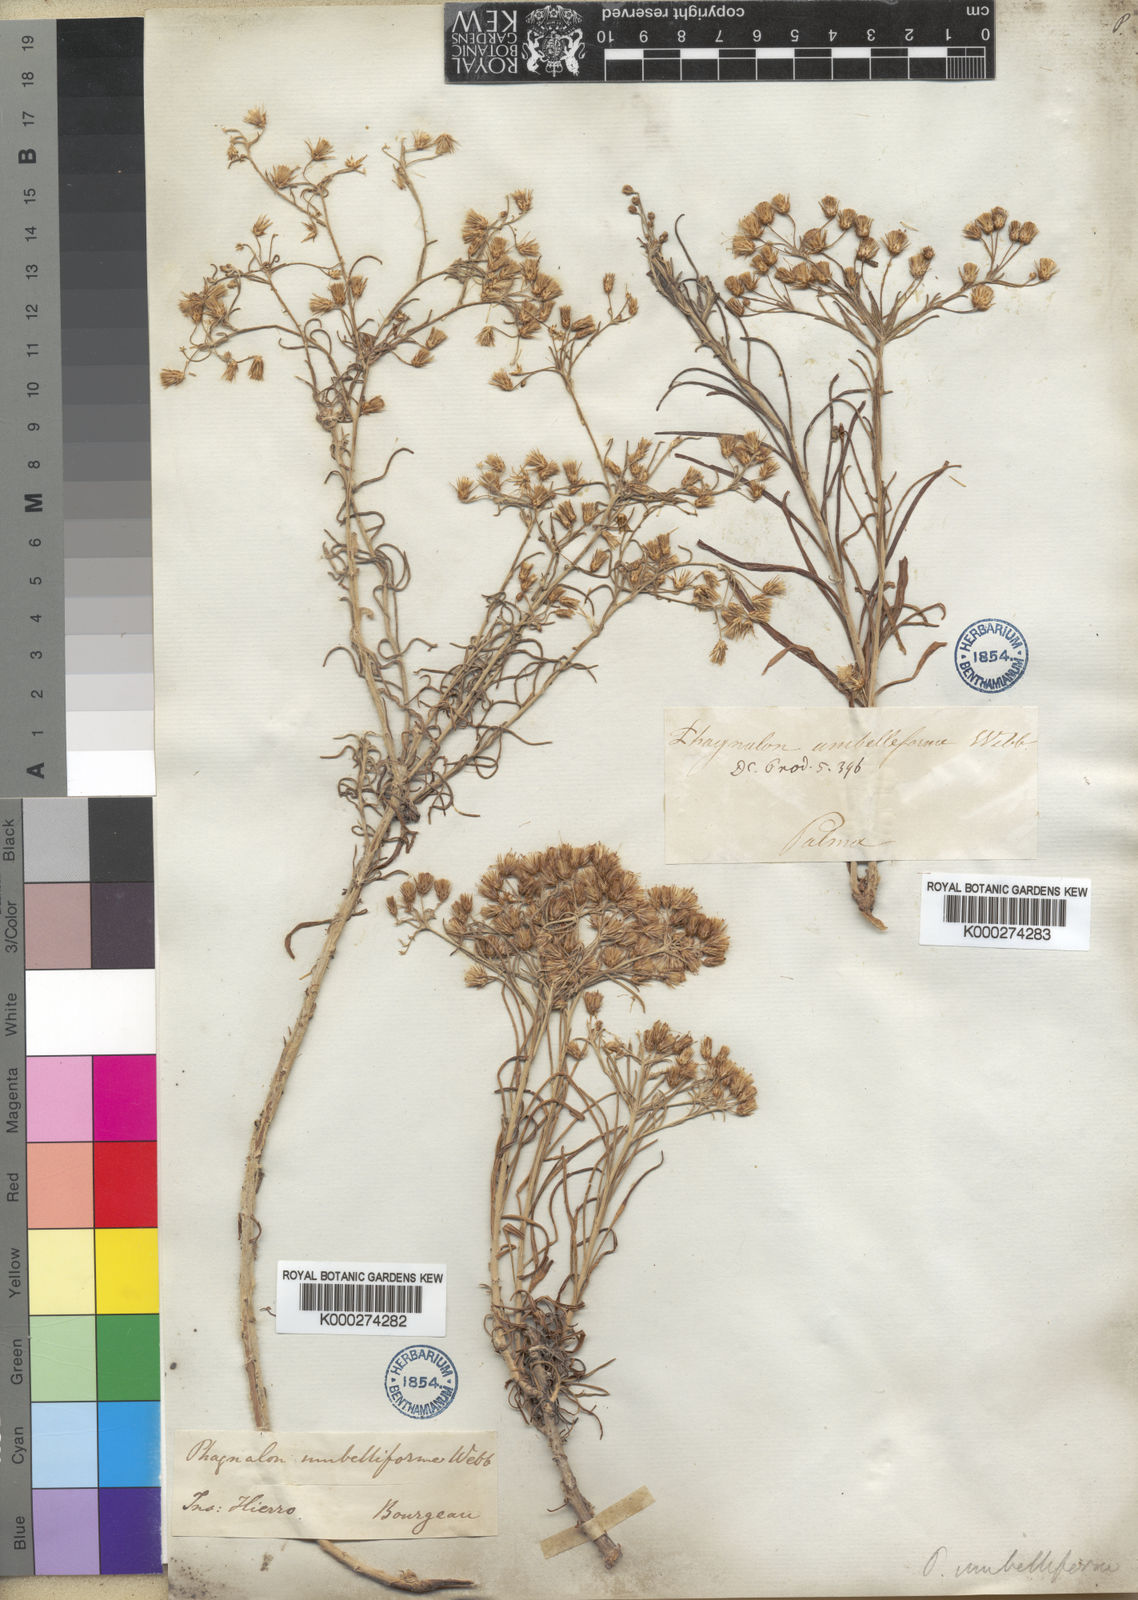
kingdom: Plantae
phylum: Tracheophyta
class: Magnoliopsida
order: Asterales
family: Asteraceae
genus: Phagnalon
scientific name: Phagnalon
